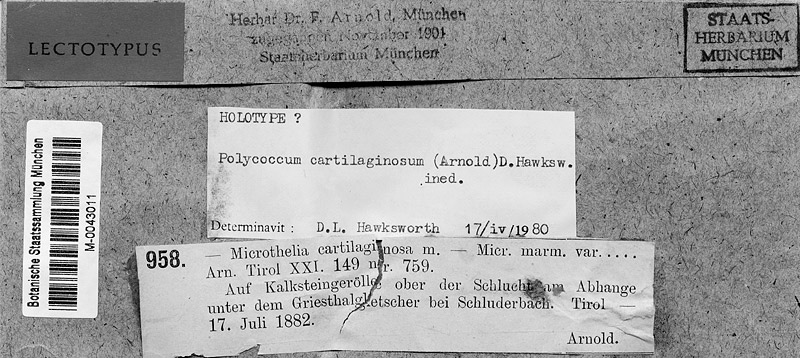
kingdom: Fungi
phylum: Ascomycota
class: Dothideomycetes
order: Pleosporales
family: Dacampiaceae
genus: Polycoccum
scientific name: Polycoccum cartilaginosum
